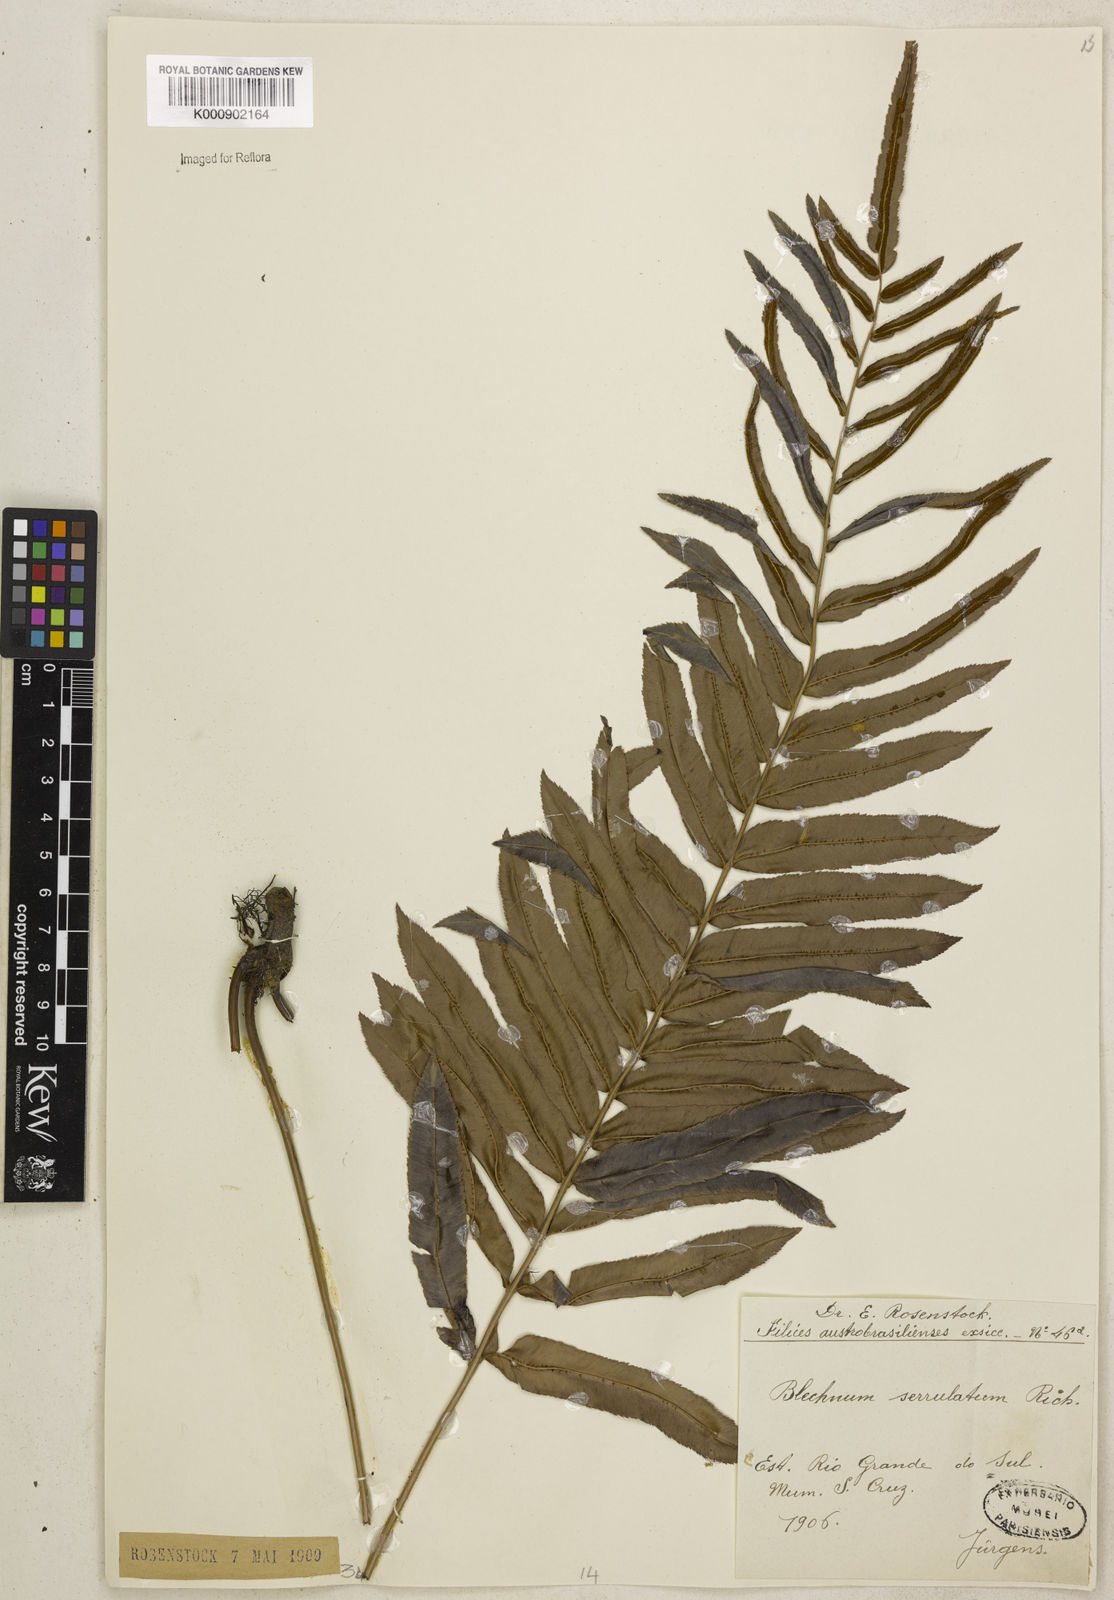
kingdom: Plantae
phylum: Tracheophyta
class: Polypodiopsida
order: Polypodiales
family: Blechnaceae
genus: Telmatoblechnum
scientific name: Telmatoblechnum serrulatum
